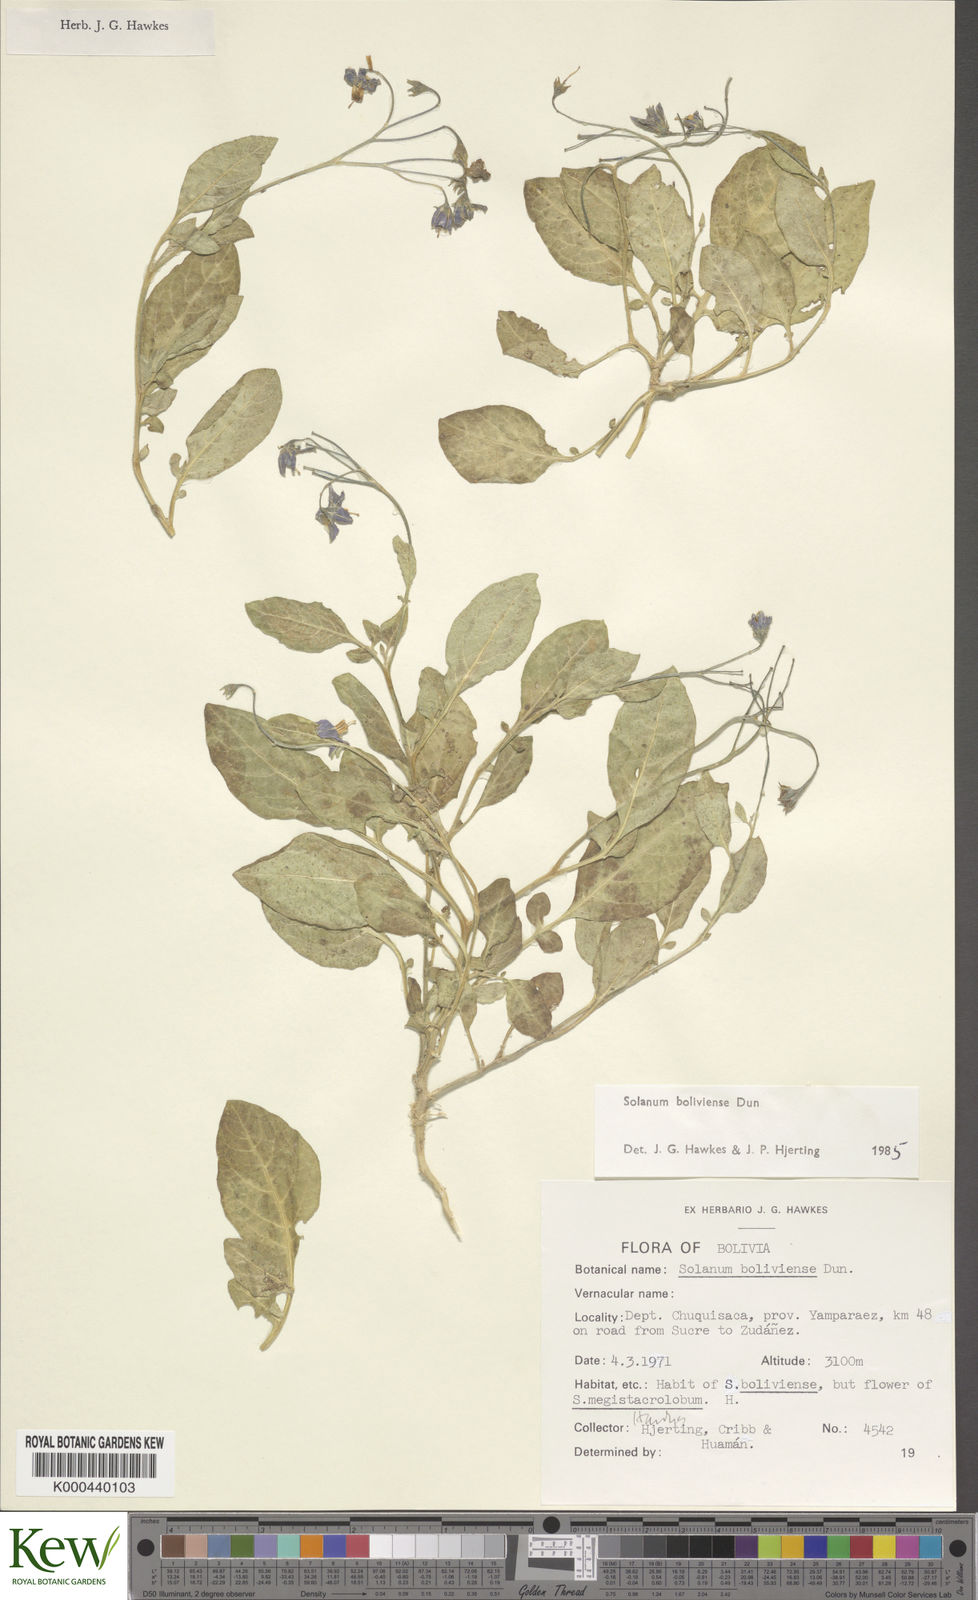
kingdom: Plantae
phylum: Tracheophyta
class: Magnoliopsida
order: Solanales
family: Solanaceae
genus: Solanum
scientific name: Solanum boliviense
